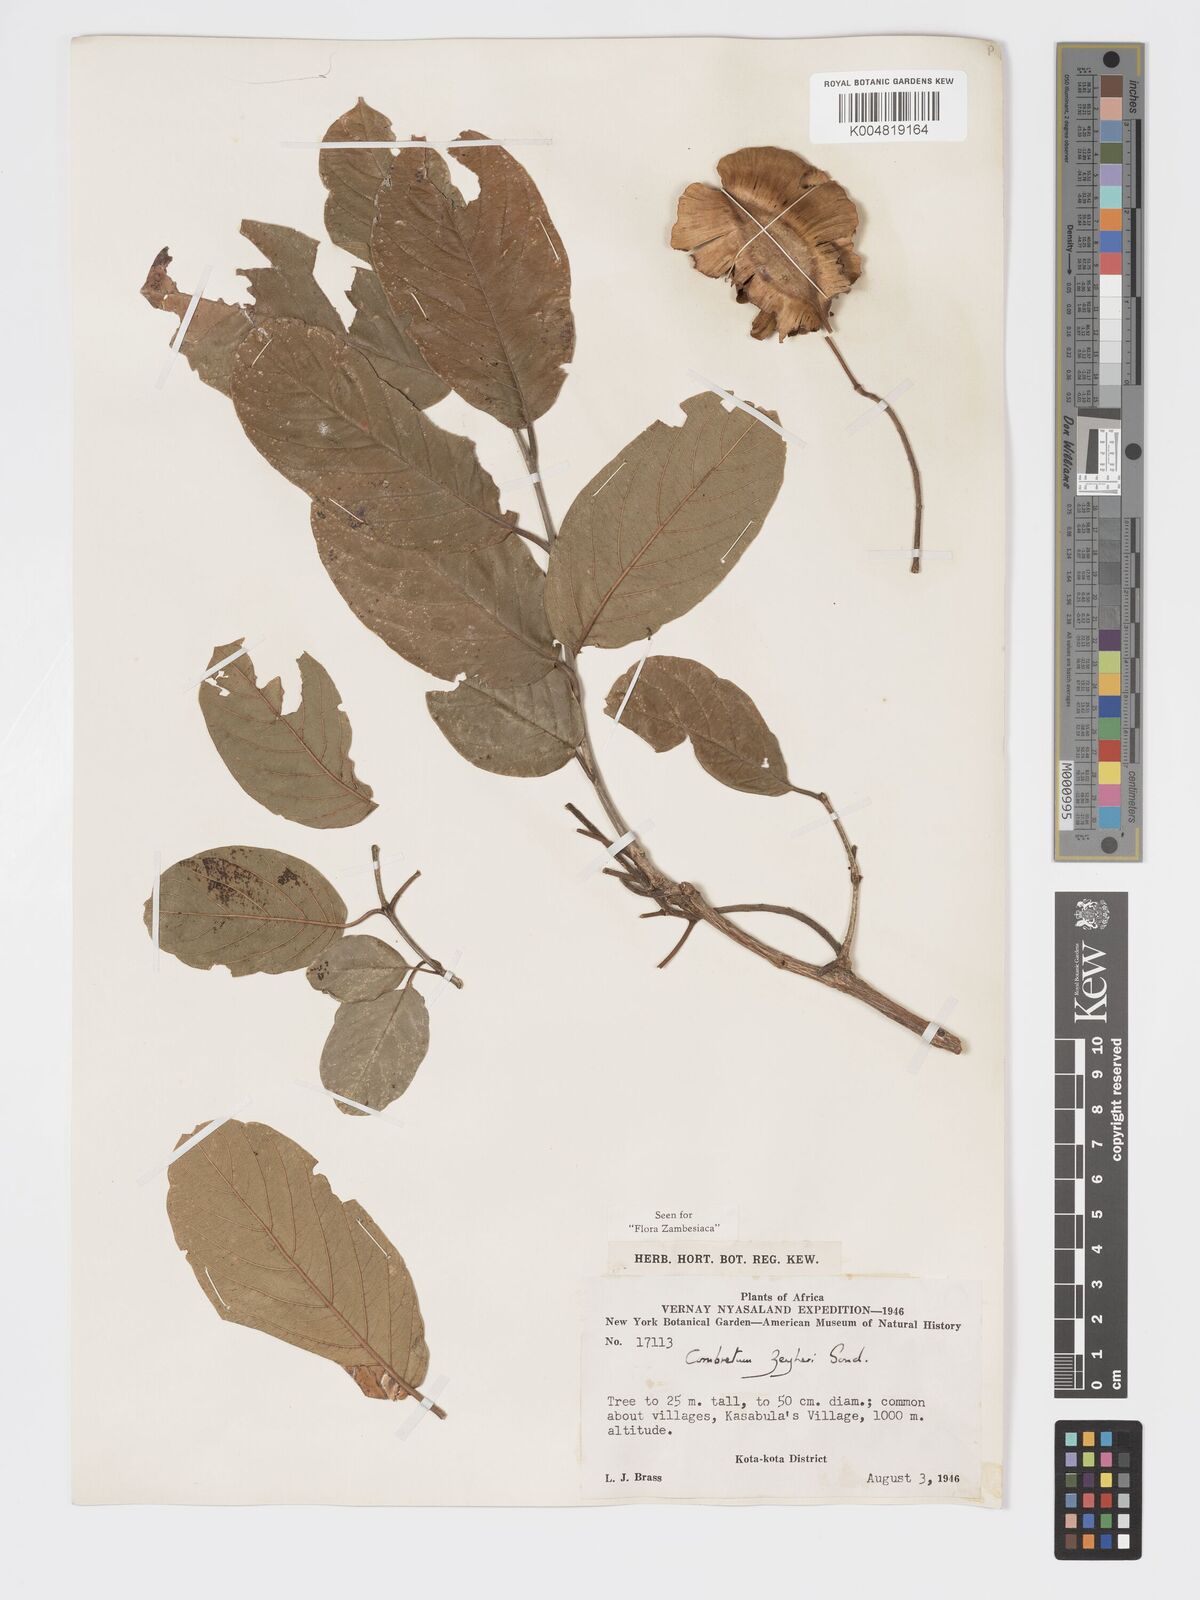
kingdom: Plantae
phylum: Tracheophyta
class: Magnoliopsida
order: Myrtales
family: Combretaceae
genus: Combretum
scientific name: Combretum zeyheri
